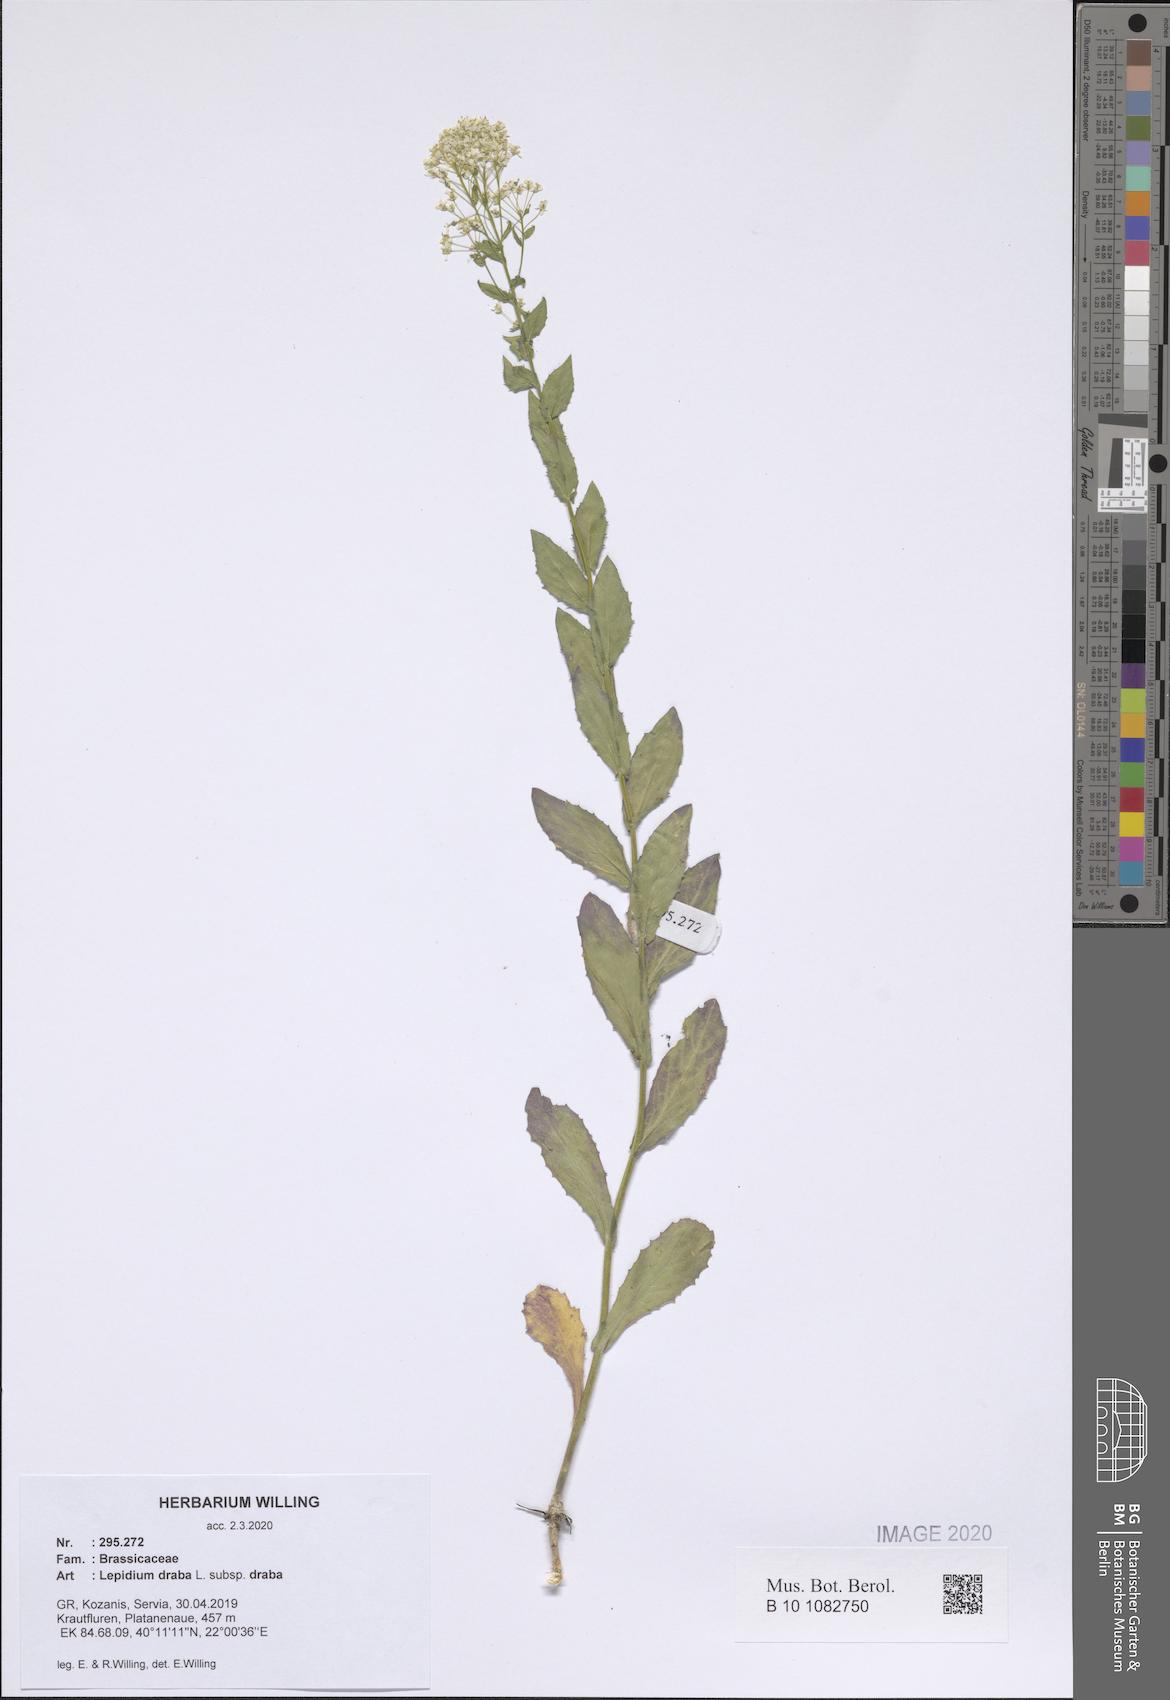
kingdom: Plantae
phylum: Tracheophyta
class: Magnoliopsida
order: Brassicales
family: Brassicaceae
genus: Lepidium
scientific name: Lepidium draba
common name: Hoary cress
